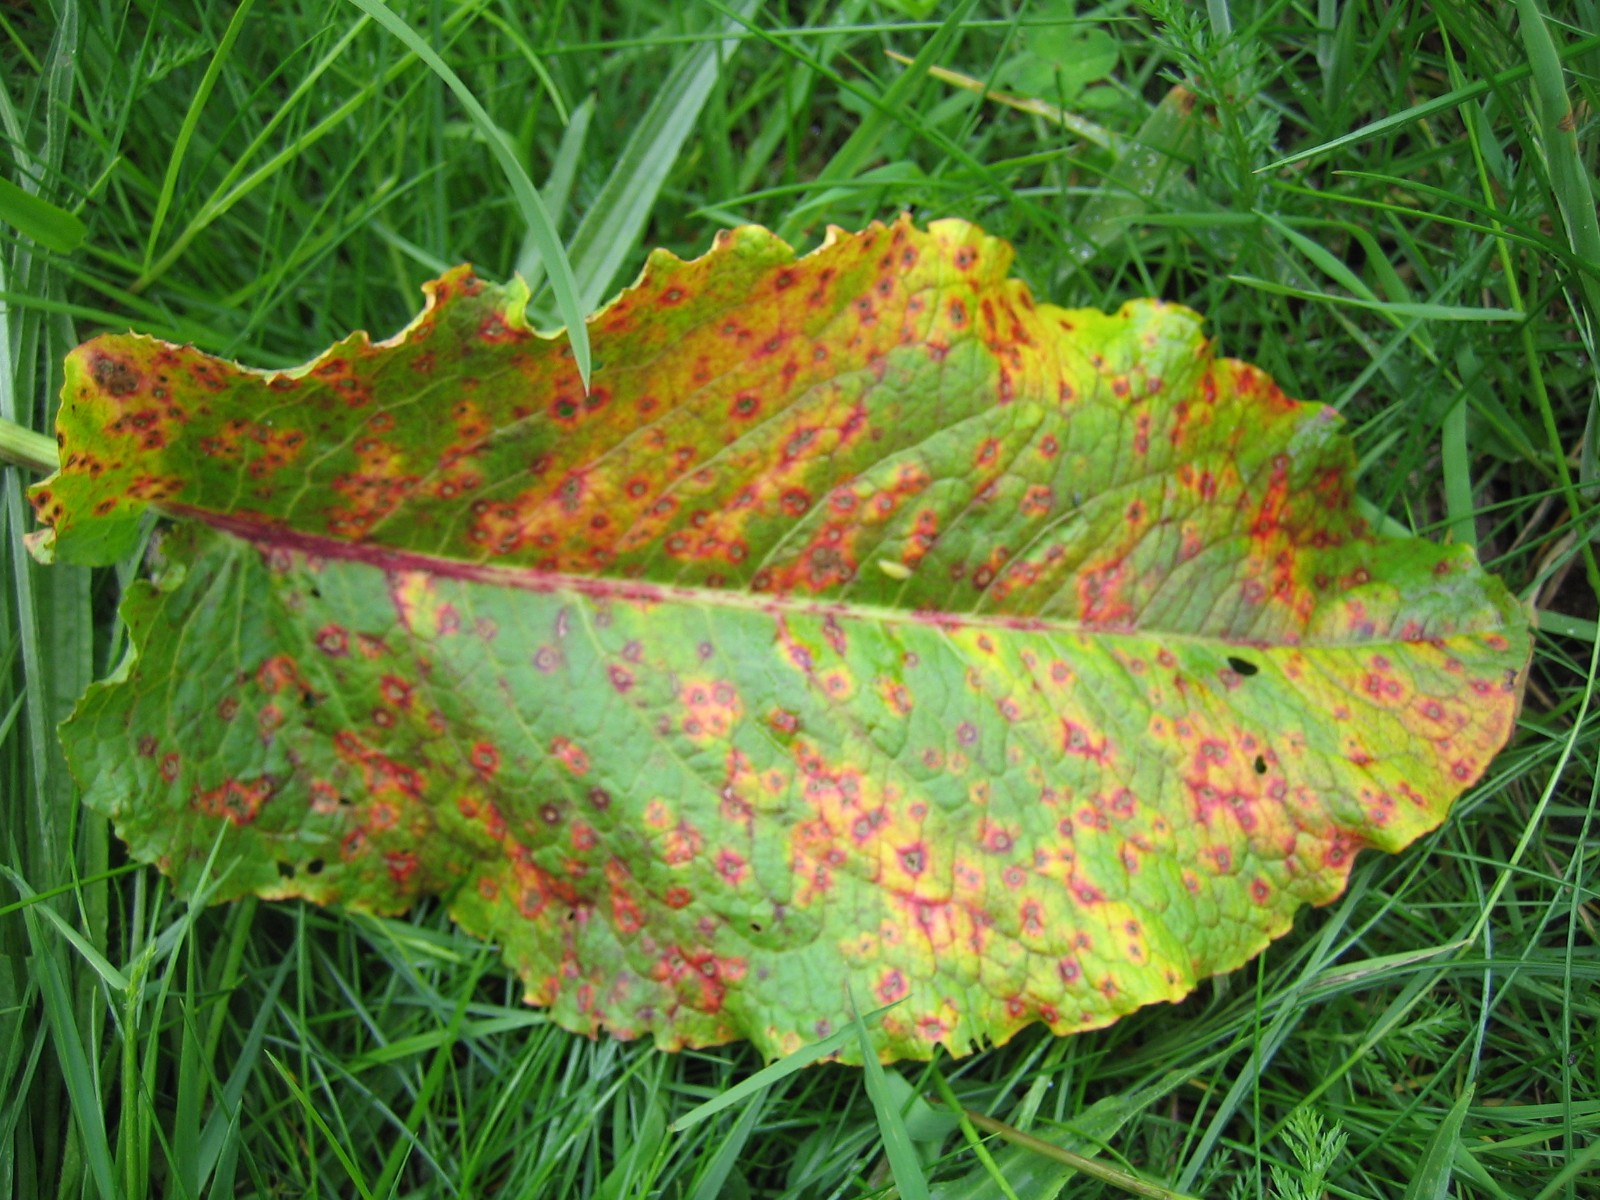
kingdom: Fungi
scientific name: Fungi
